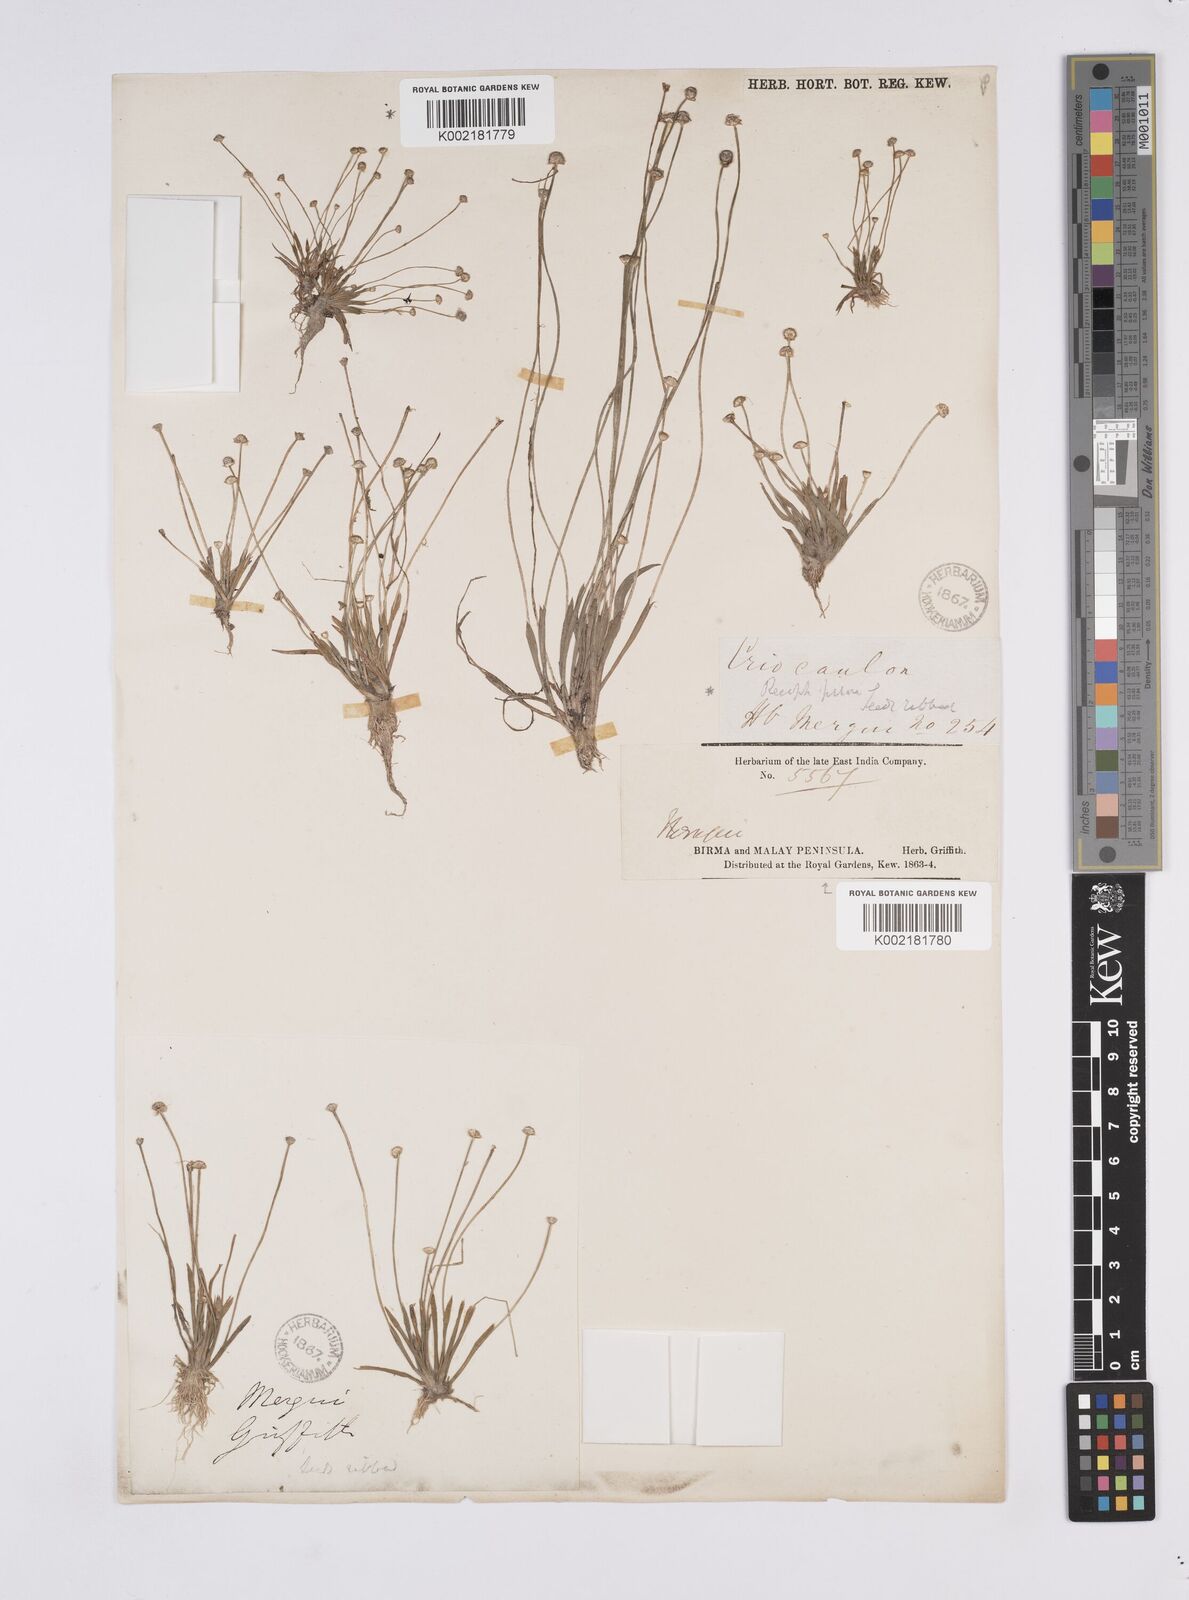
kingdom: Plantae
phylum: Tracheophyta
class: Liliopsida
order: Poales
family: Eriocaulaceae
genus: Eriocaulon
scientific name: Eriocaulon truncatum
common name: Short pipe-wort
